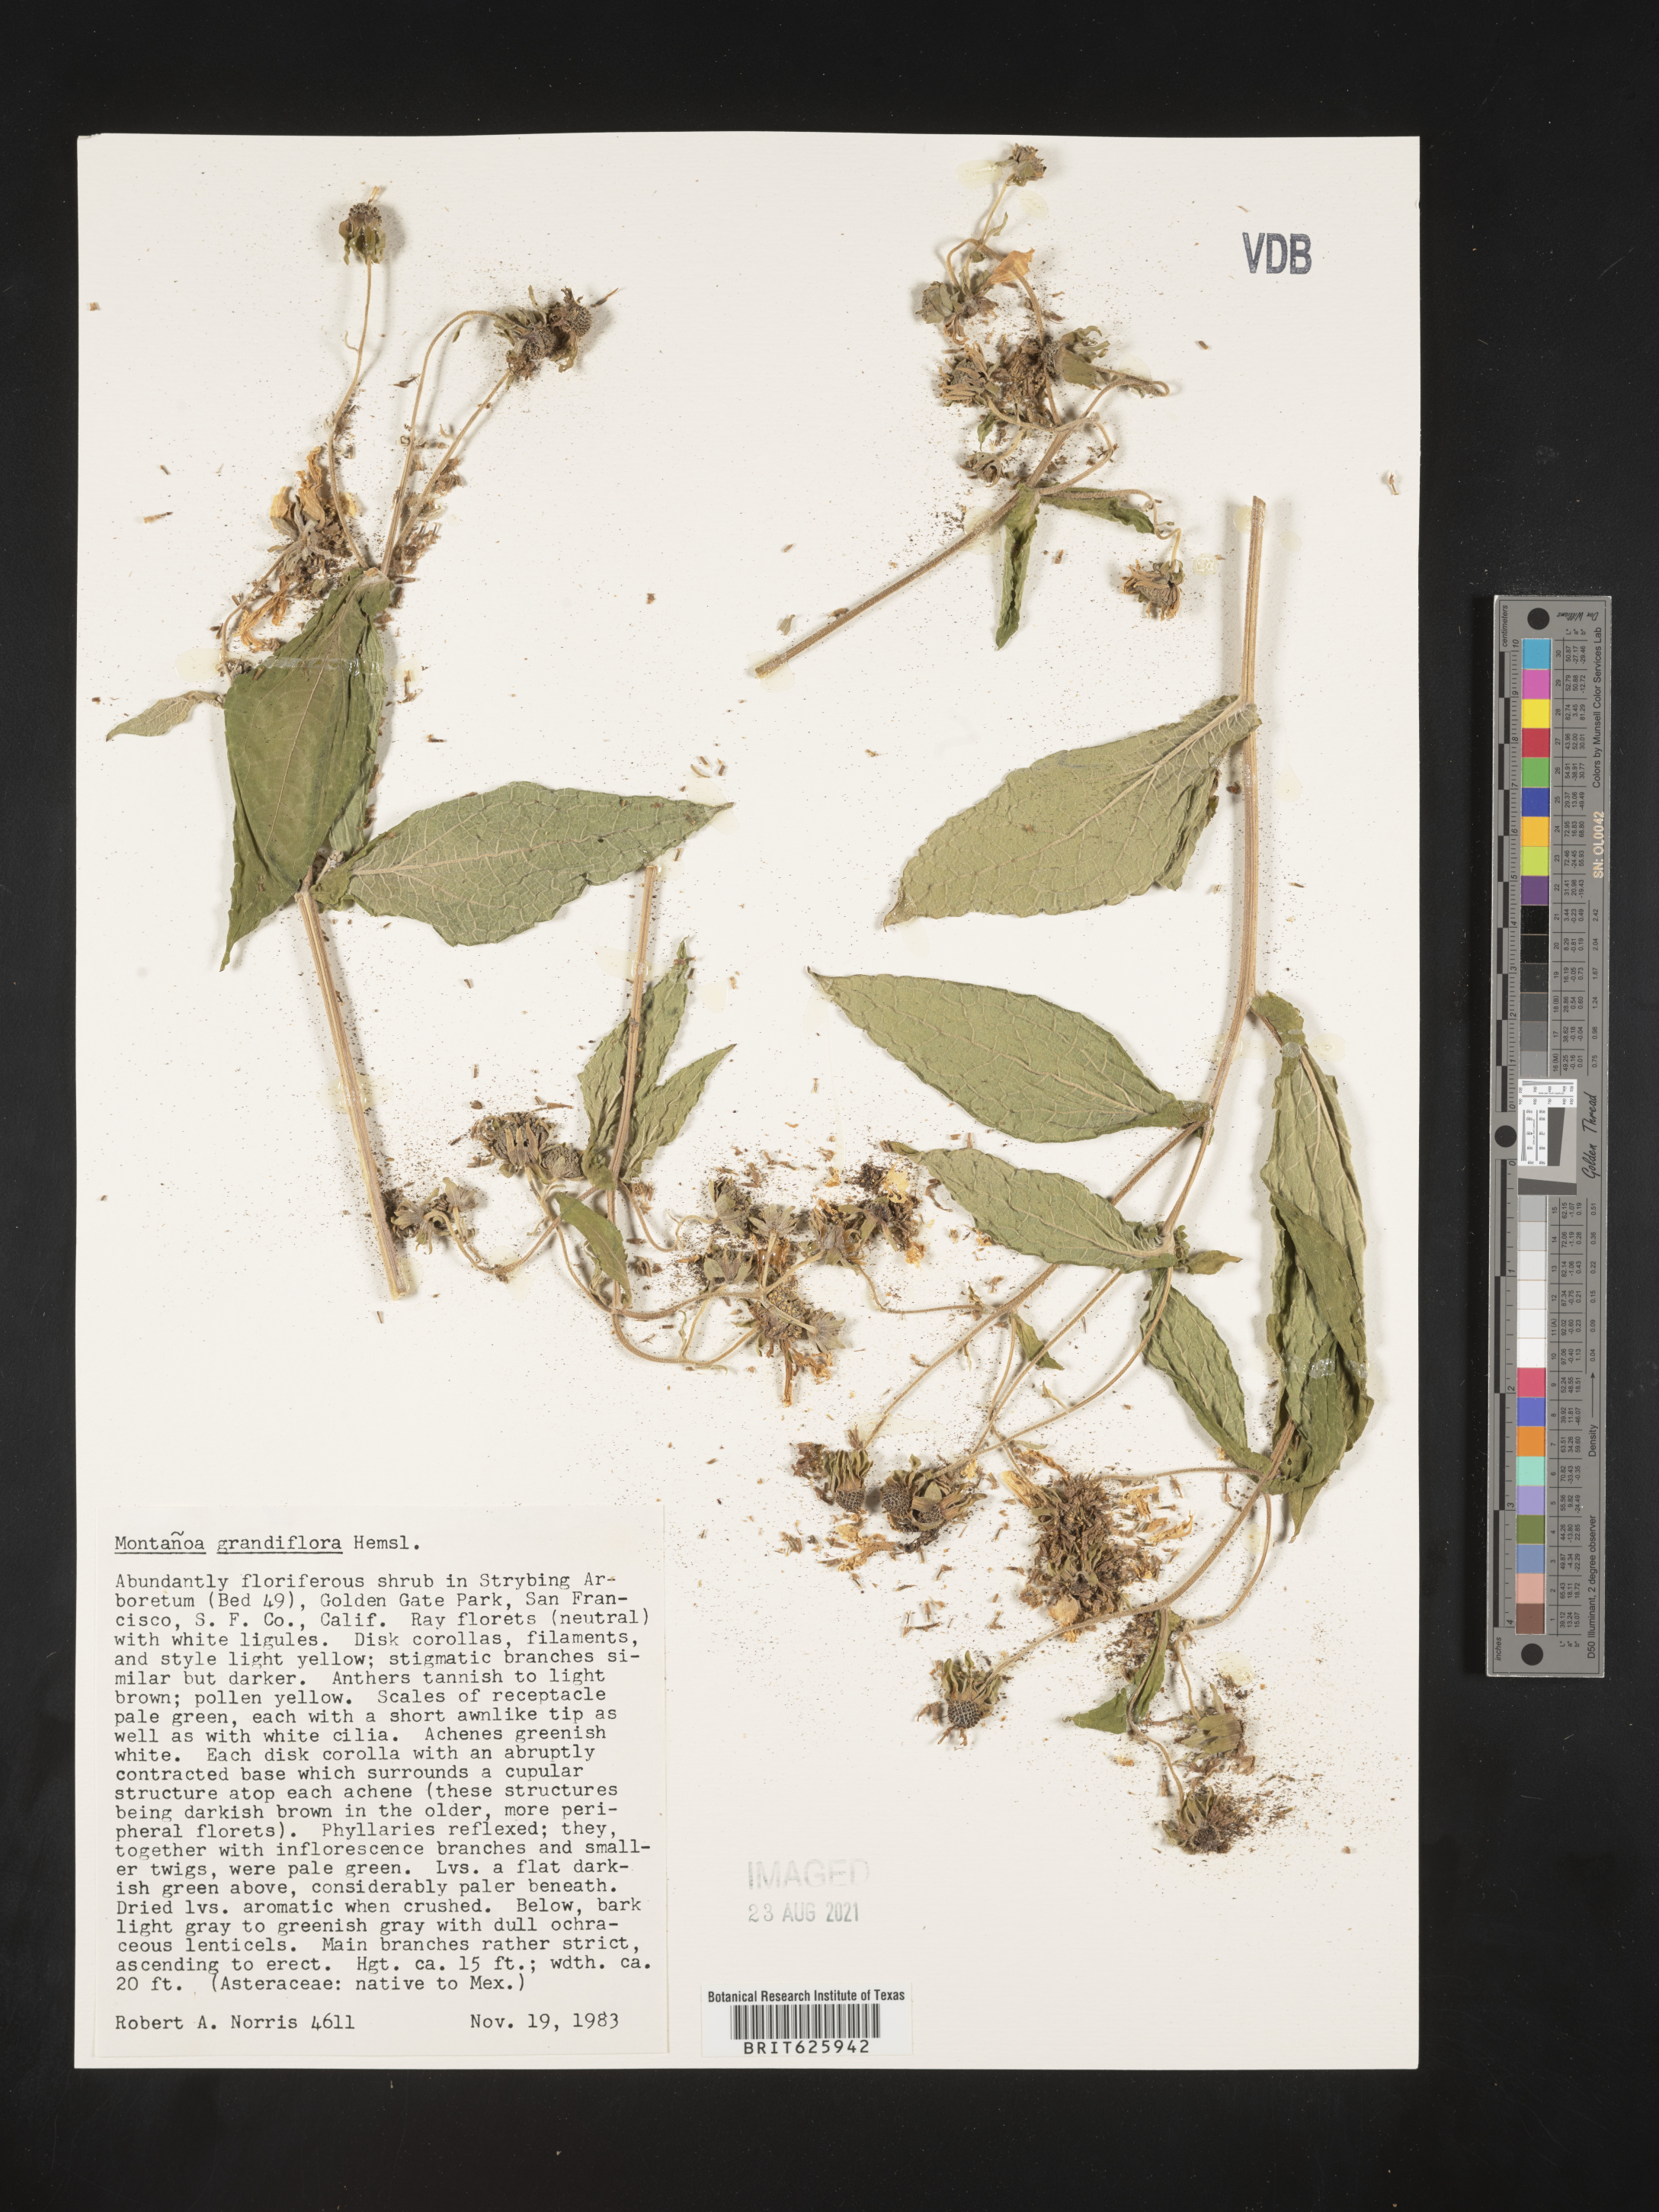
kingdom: Plantae
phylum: Tracheophyta
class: Magnoliopsida
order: Asterales
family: Asteraceae
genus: Montanoa
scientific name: Montanoa grandiflora
